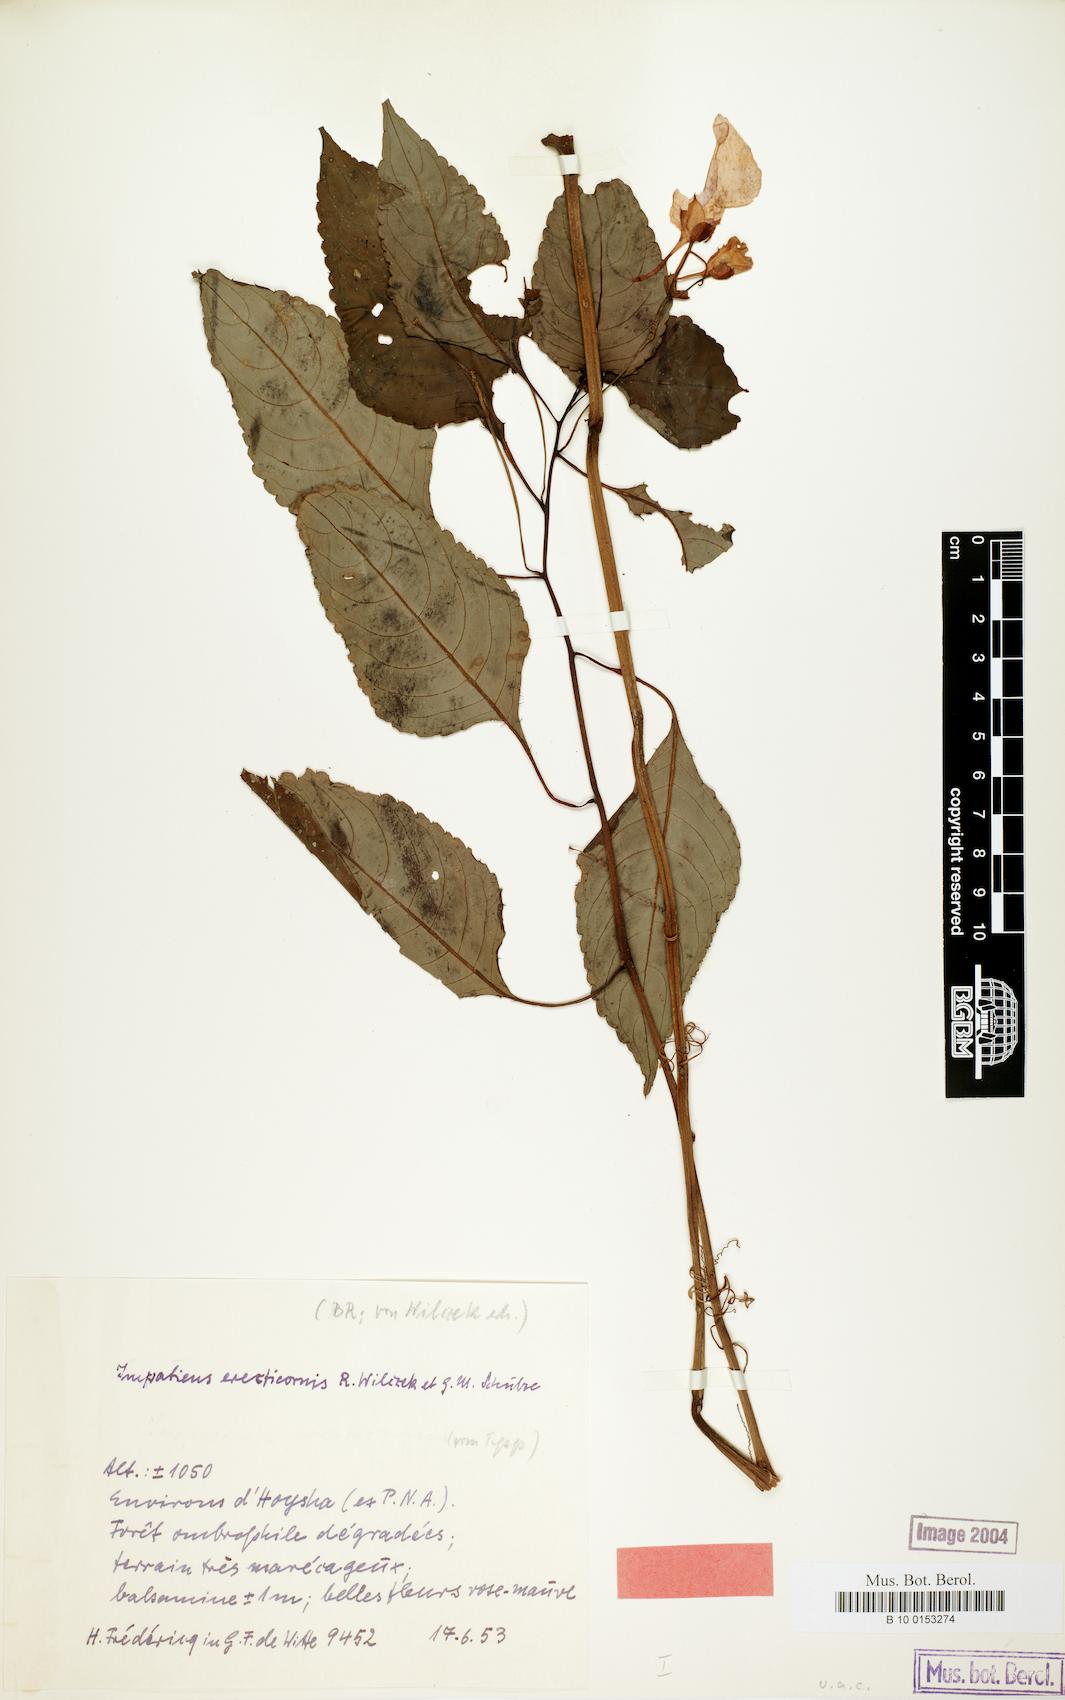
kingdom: Plantae
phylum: Tracheophyta
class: Magnoliopsida
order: Ericales
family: Balsaminaceae
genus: Impatiens
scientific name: Impatiens erecticornis
